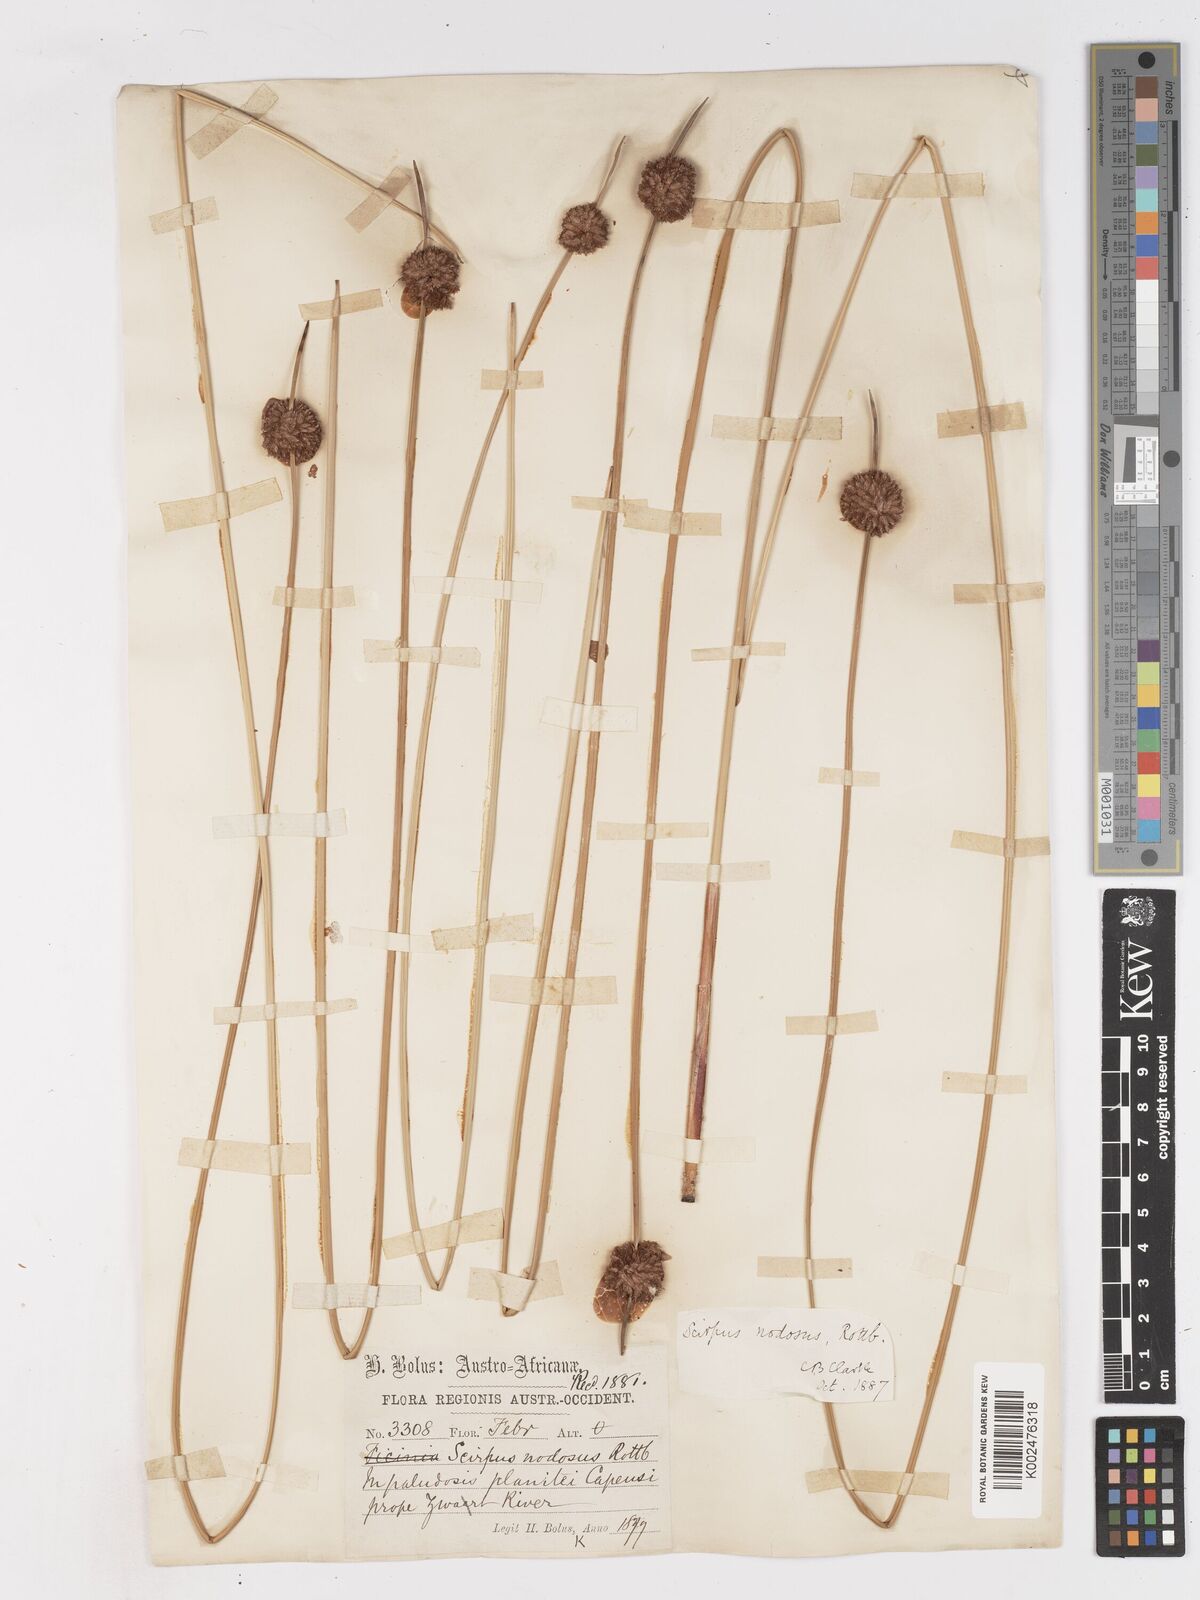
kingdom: Plantae
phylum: Tracheophyta
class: Liliopsida
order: Poales
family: Cyperaceae
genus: Ficinia
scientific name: Ficinia nodosa
